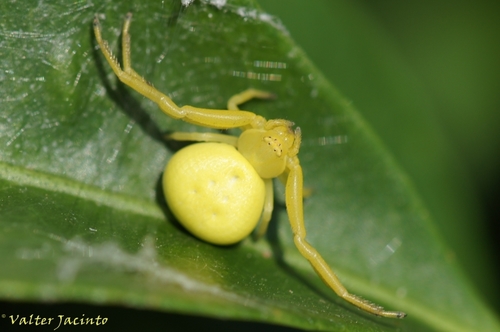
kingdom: Animalia
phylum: Arthropoda
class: Arachnida
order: Araneae
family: Thomisidae
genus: Misumena
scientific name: Misumena vatia
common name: Goldenrod crab spider
